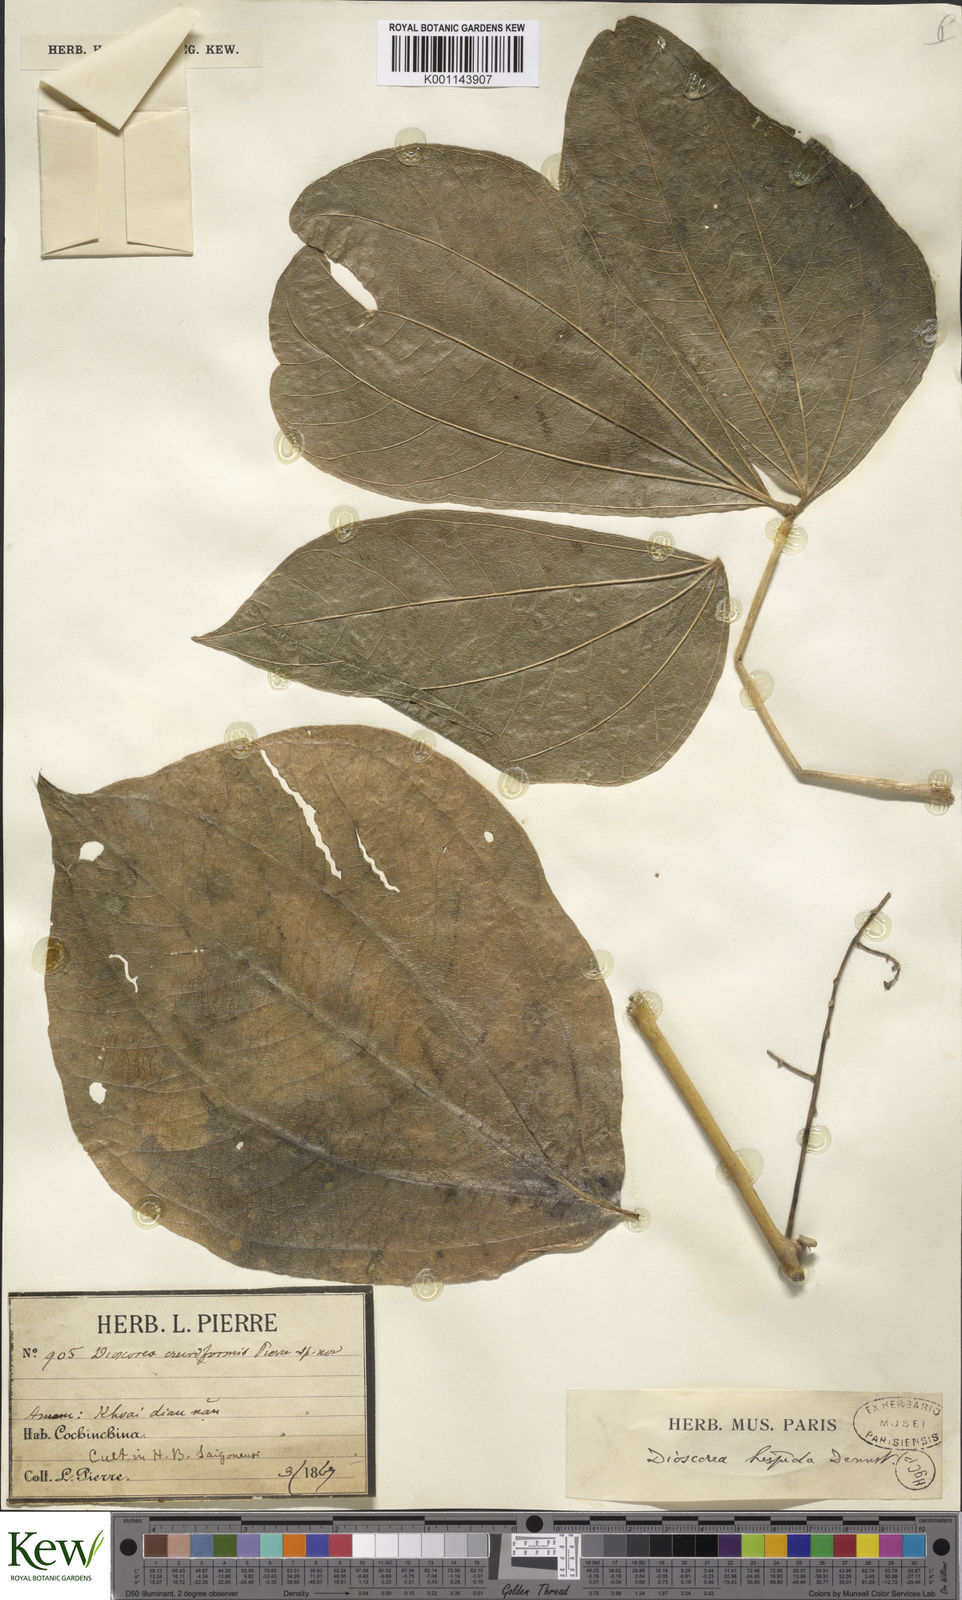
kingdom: Plantae
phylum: Tracheophyta
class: Liliopsida
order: Dioscoreales
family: Dioscoreaceae
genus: Dioscorea
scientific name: Dioscorea hispida
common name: Asiatic bitter yam
